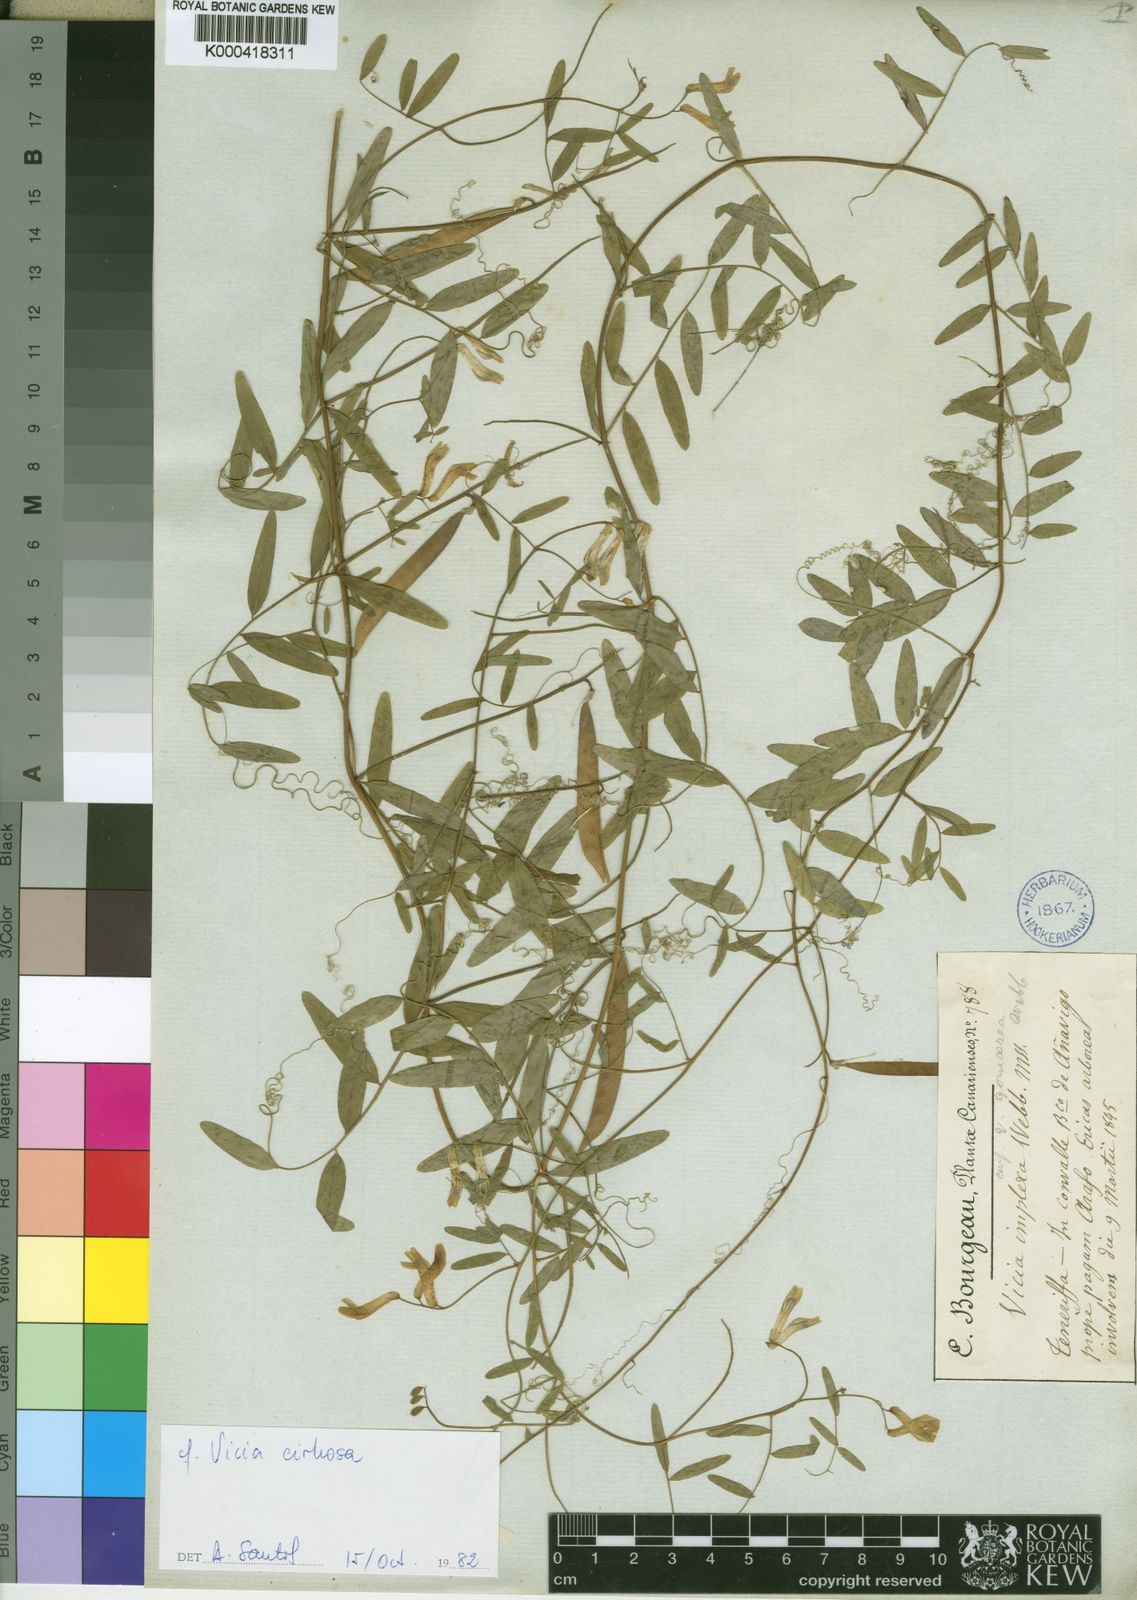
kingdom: Plantae
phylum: Tracheophyta
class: Magnoliopsida
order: Fabales
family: Fabaceae
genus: Vicia
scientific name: Vicia
